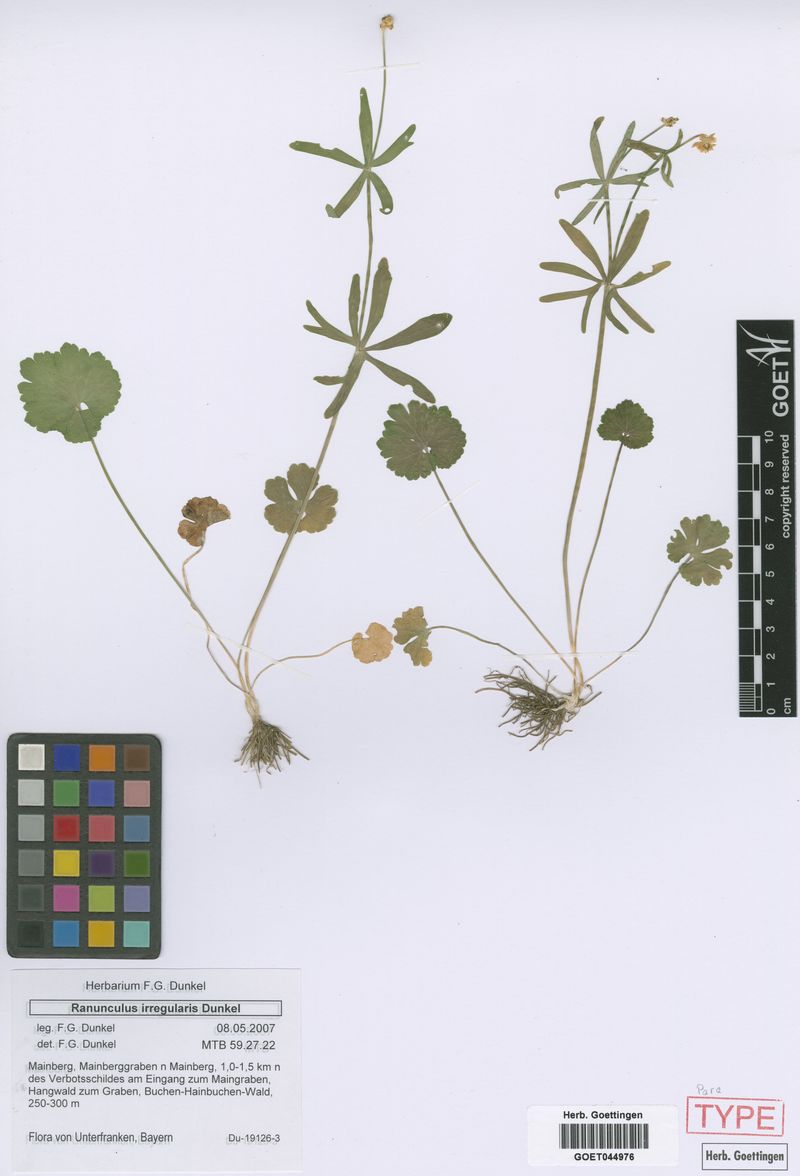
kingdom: Plantae
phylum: Tracheophyta
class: Magnoliopsida
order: Ranunculales
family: Ranunculaceae
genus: Ranunculus
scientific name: Ranunculus irregularis
